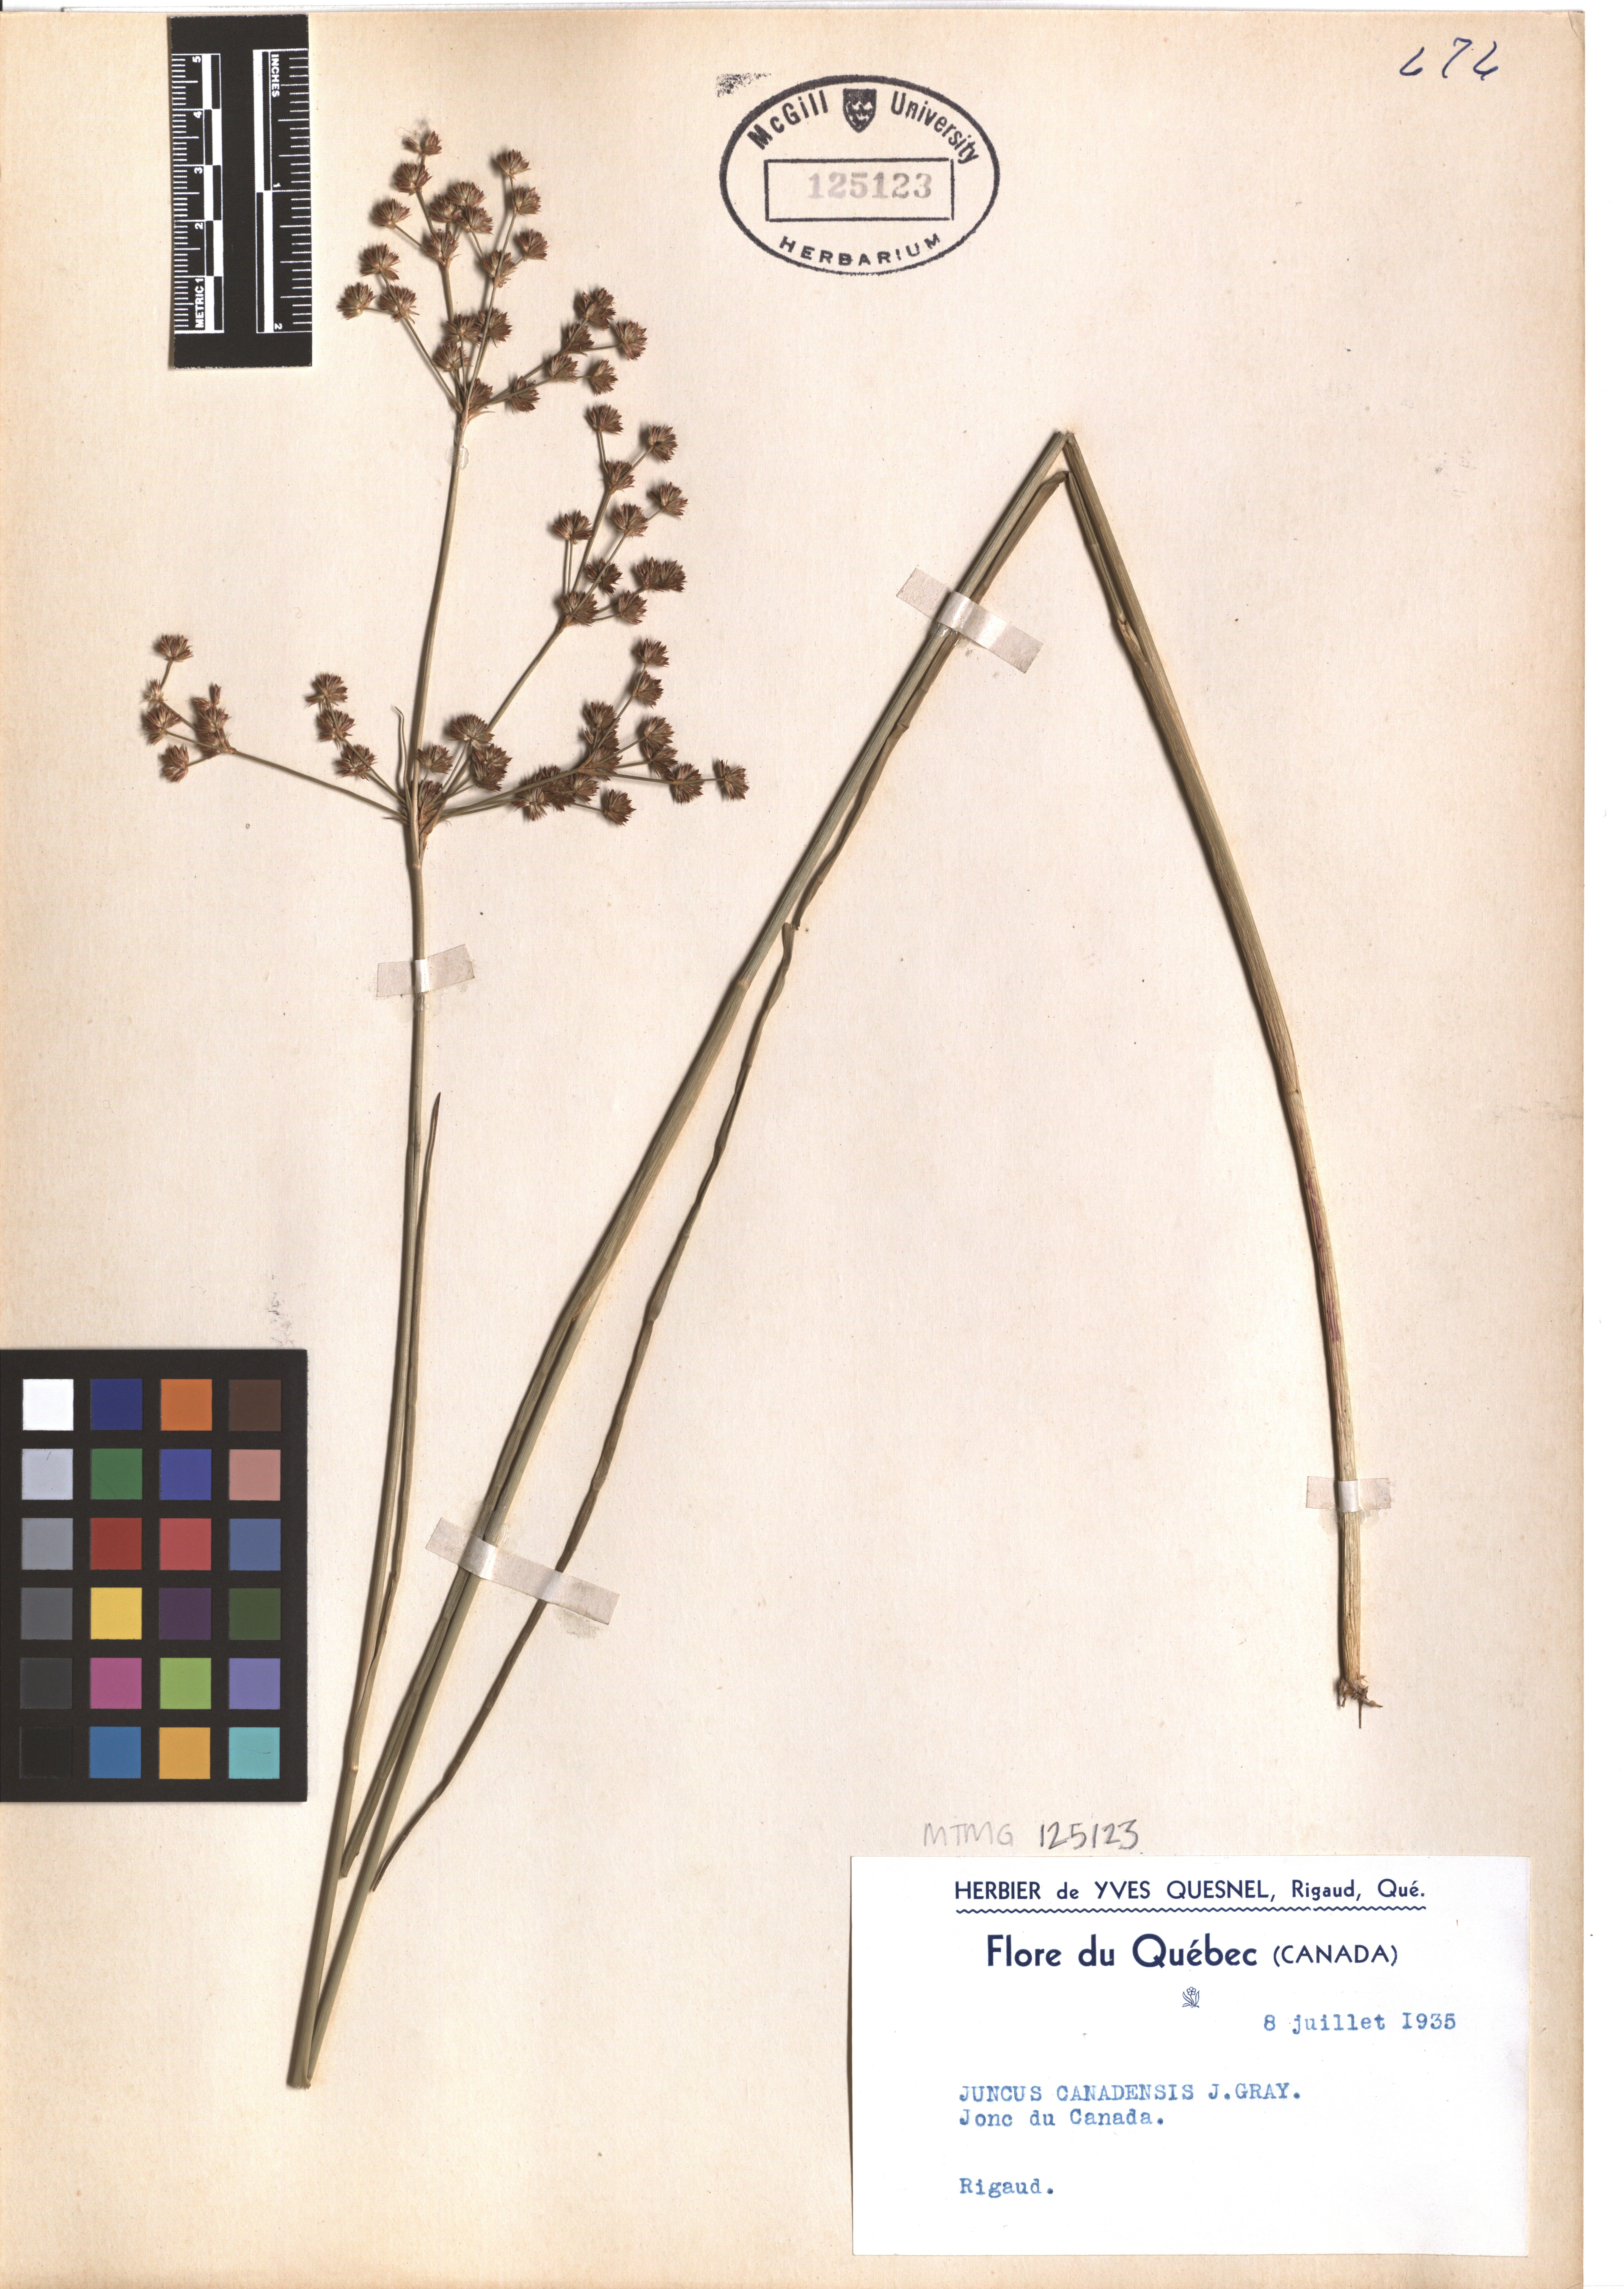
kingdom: Plantae
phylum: Tracheophyta
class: Liliopsida
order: Poales
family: Juncaceae
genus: Juncus
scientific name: Juncus canadensis
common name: Canada rush
